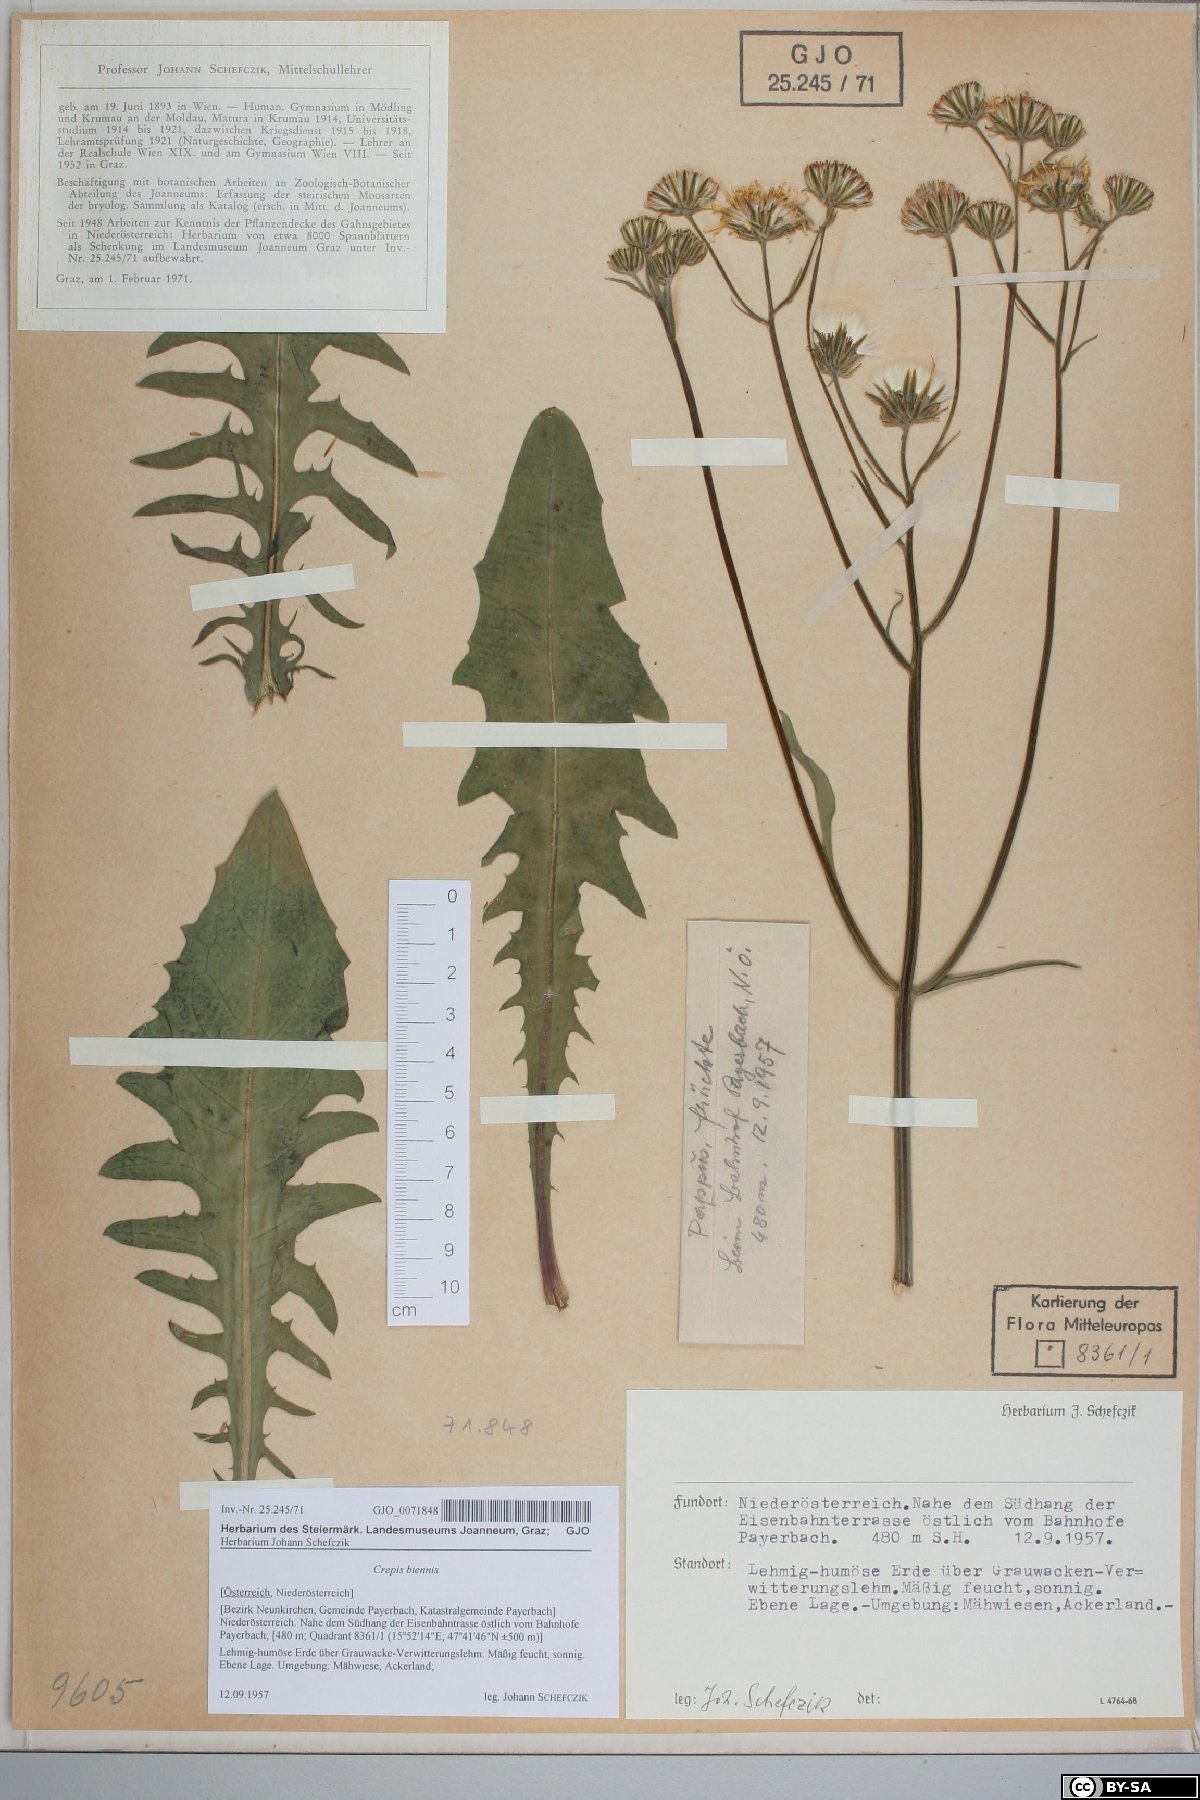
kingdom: Plantae
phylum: Tracheophyta
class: Magnoliopsida
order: Asterales
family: Asteraceae
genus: Crepis
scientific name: Crepis biennis
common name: Rough hawk's-beard
